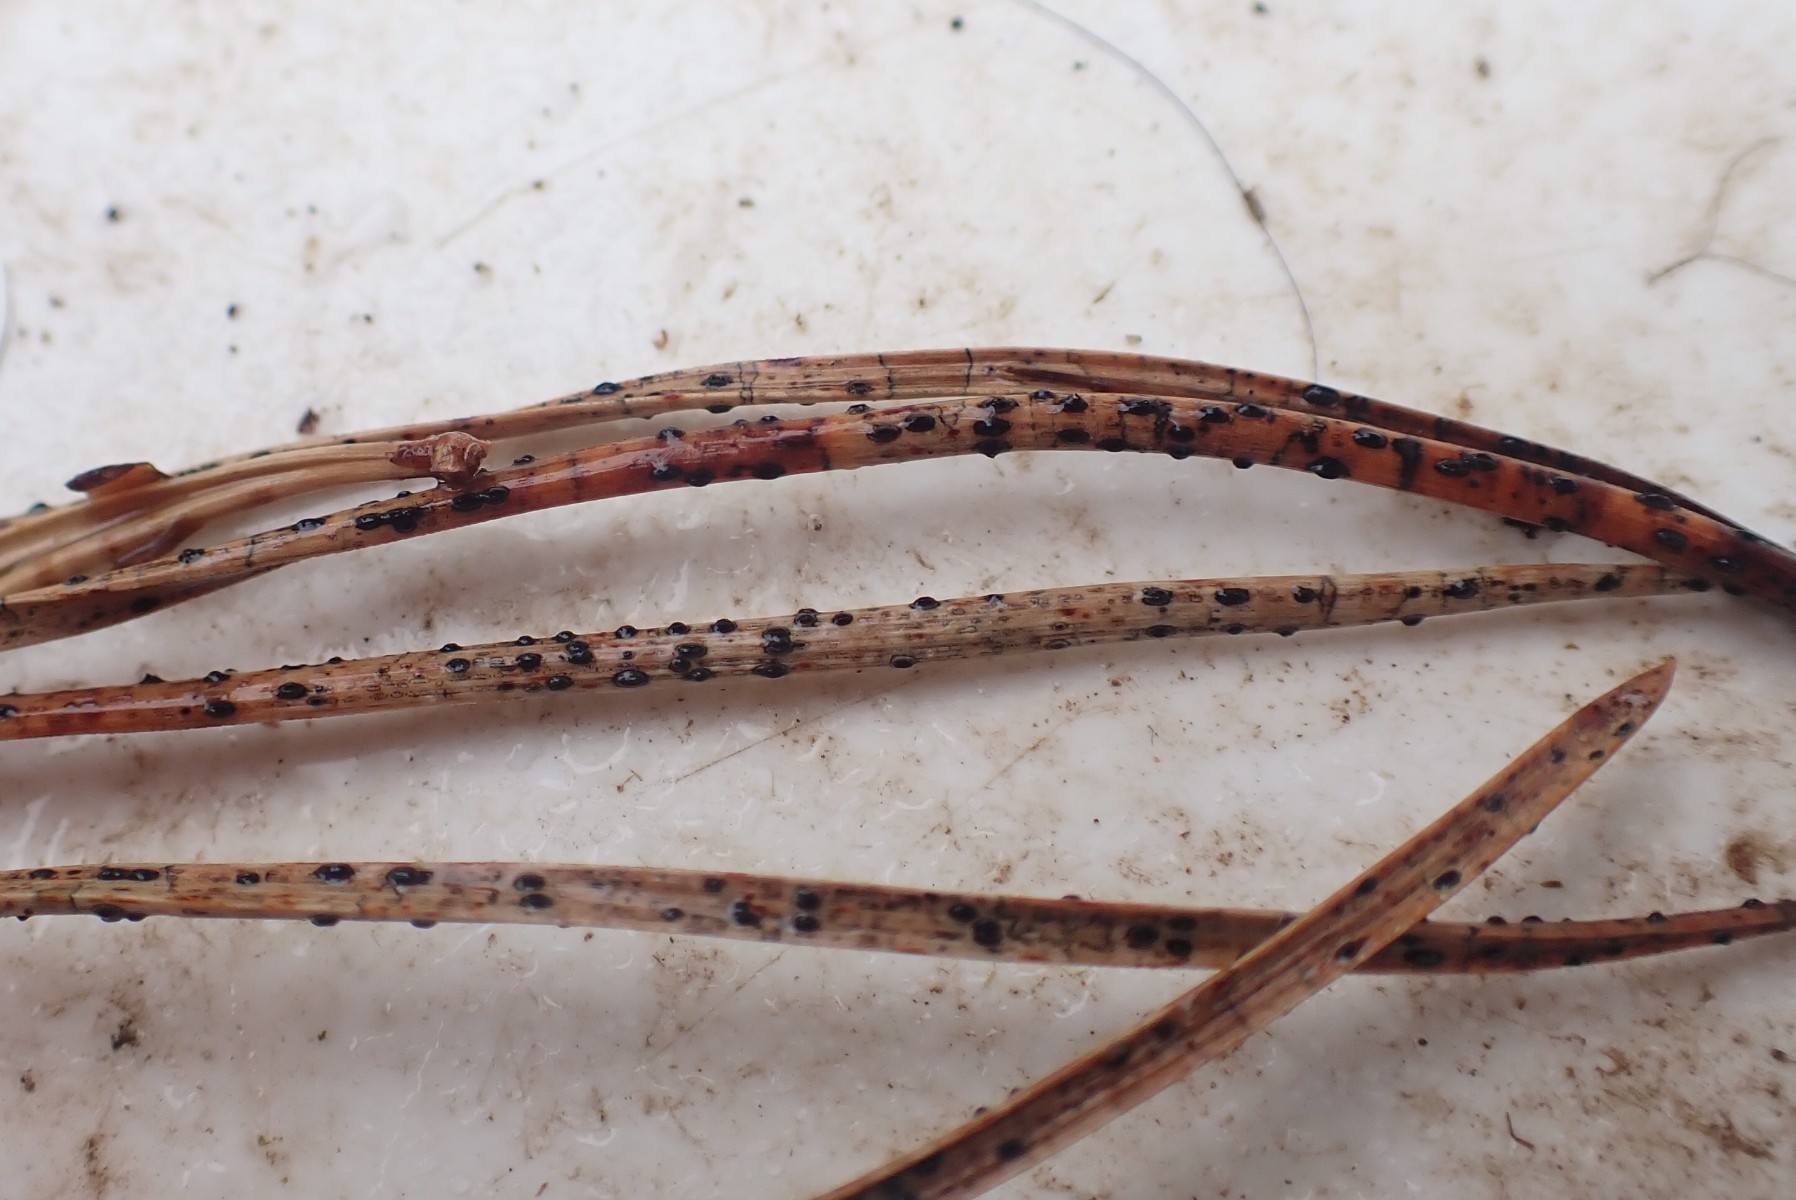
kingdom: Fungi
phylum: Ascomycota
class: Leotiomycetes
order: Rhytismatales
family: Rhytismataceae
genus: Lophodermium
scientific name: Lophodermium pinastri
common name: fyrre-fureplet
